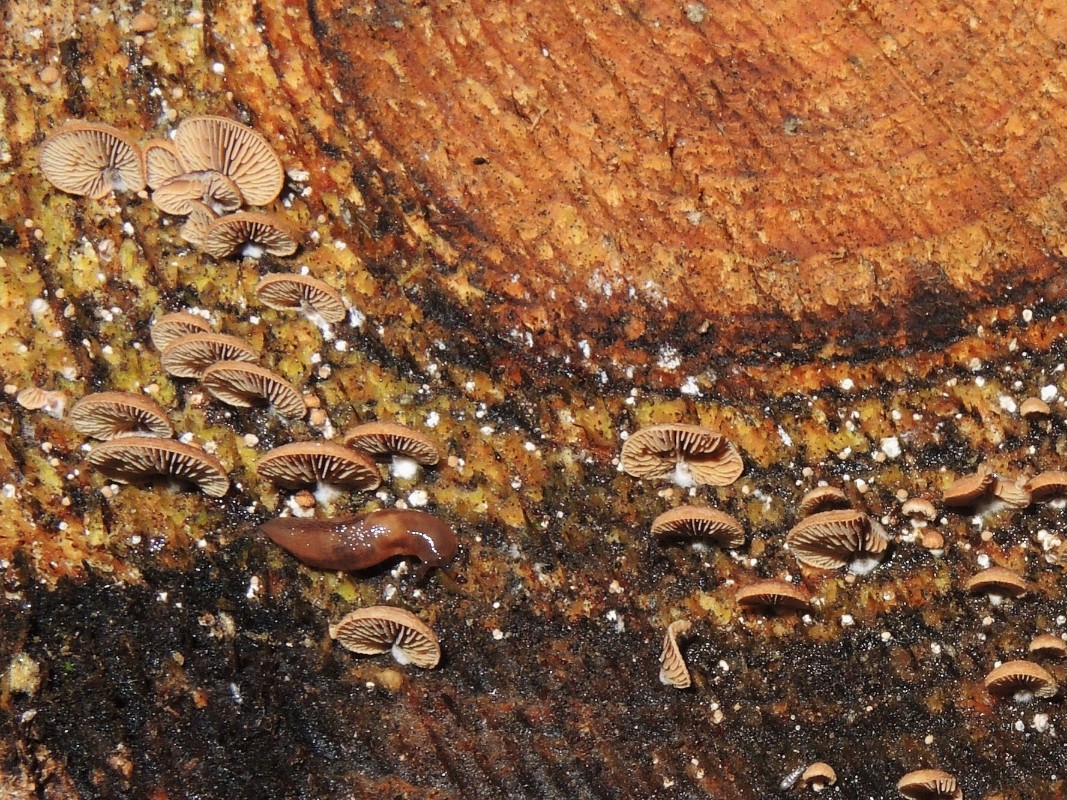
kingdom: Fungi
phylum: Basidiomycota
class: Agaricomycetes
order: Agaricales
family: Strophariaceae
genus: Deconica
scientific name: Deconica horizontalis
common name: ved-stråhat
